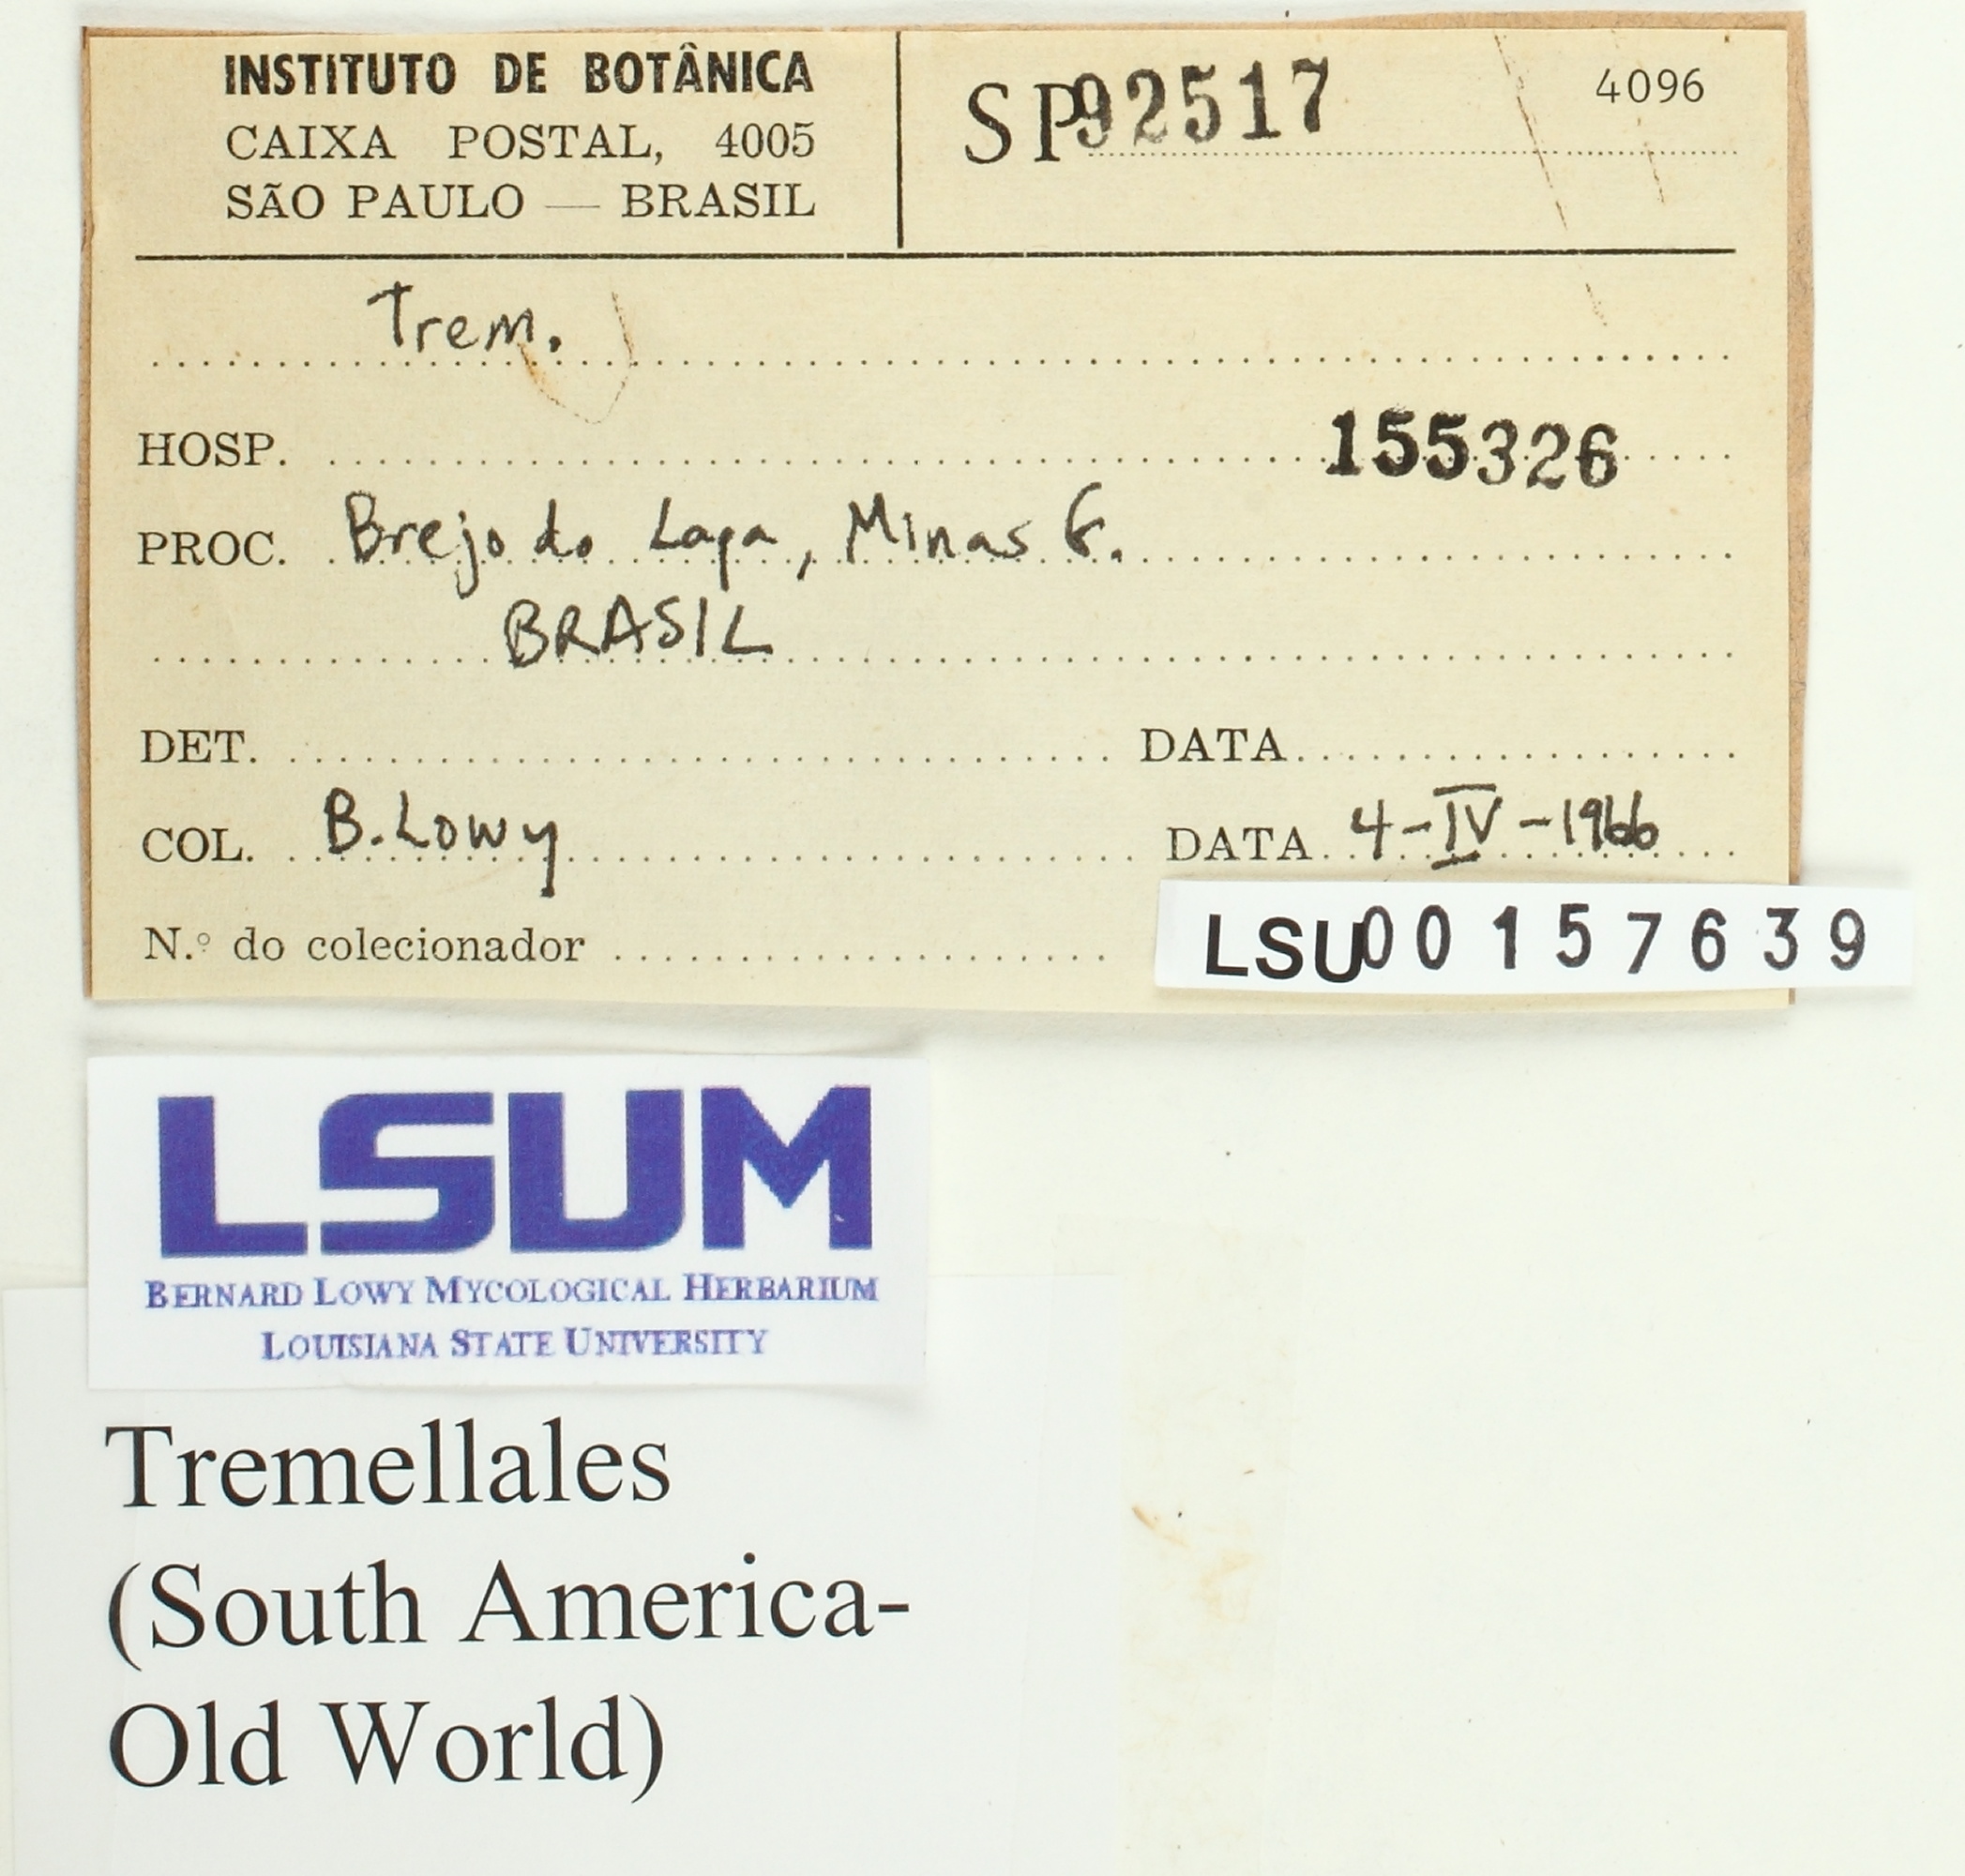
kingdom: Fungi
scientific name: Fungi
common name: Fungi
